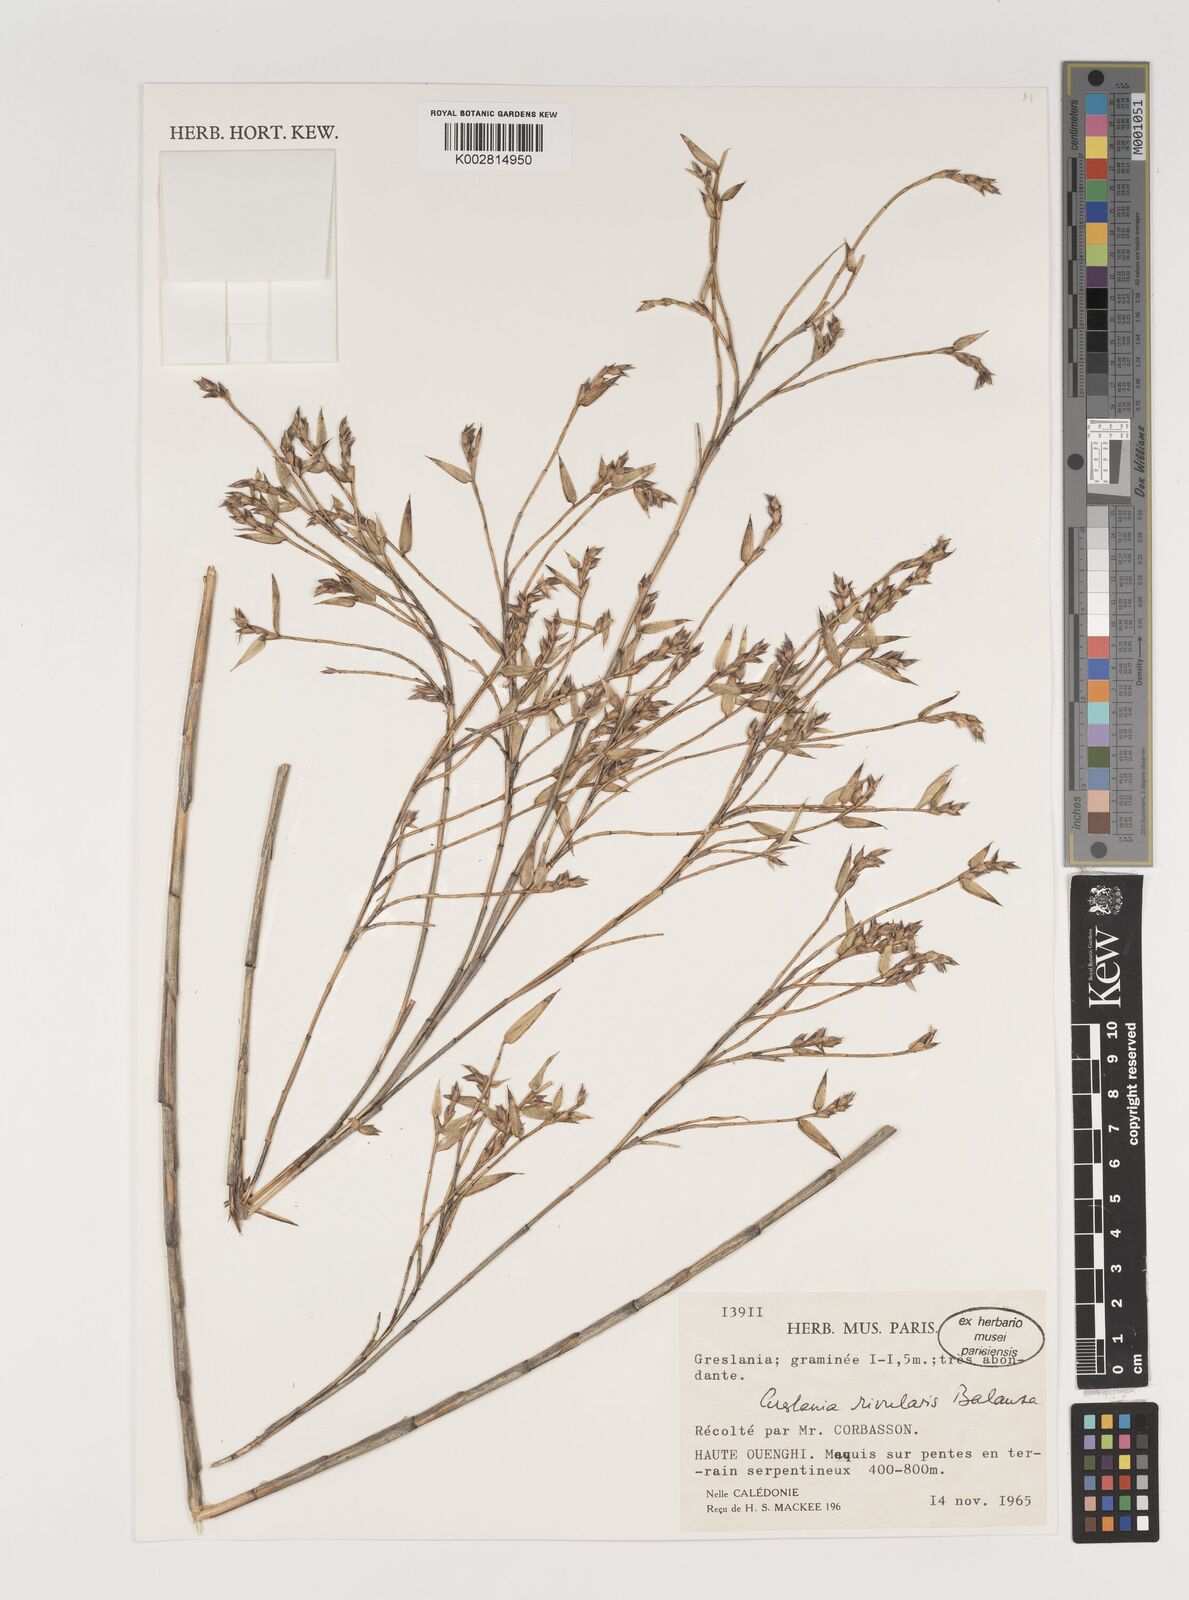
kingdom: Plantae
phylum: Tracheophyta
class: Liliopsida
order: Poales
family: Poaceae
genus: Greslania
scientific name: Greslania rivularis
